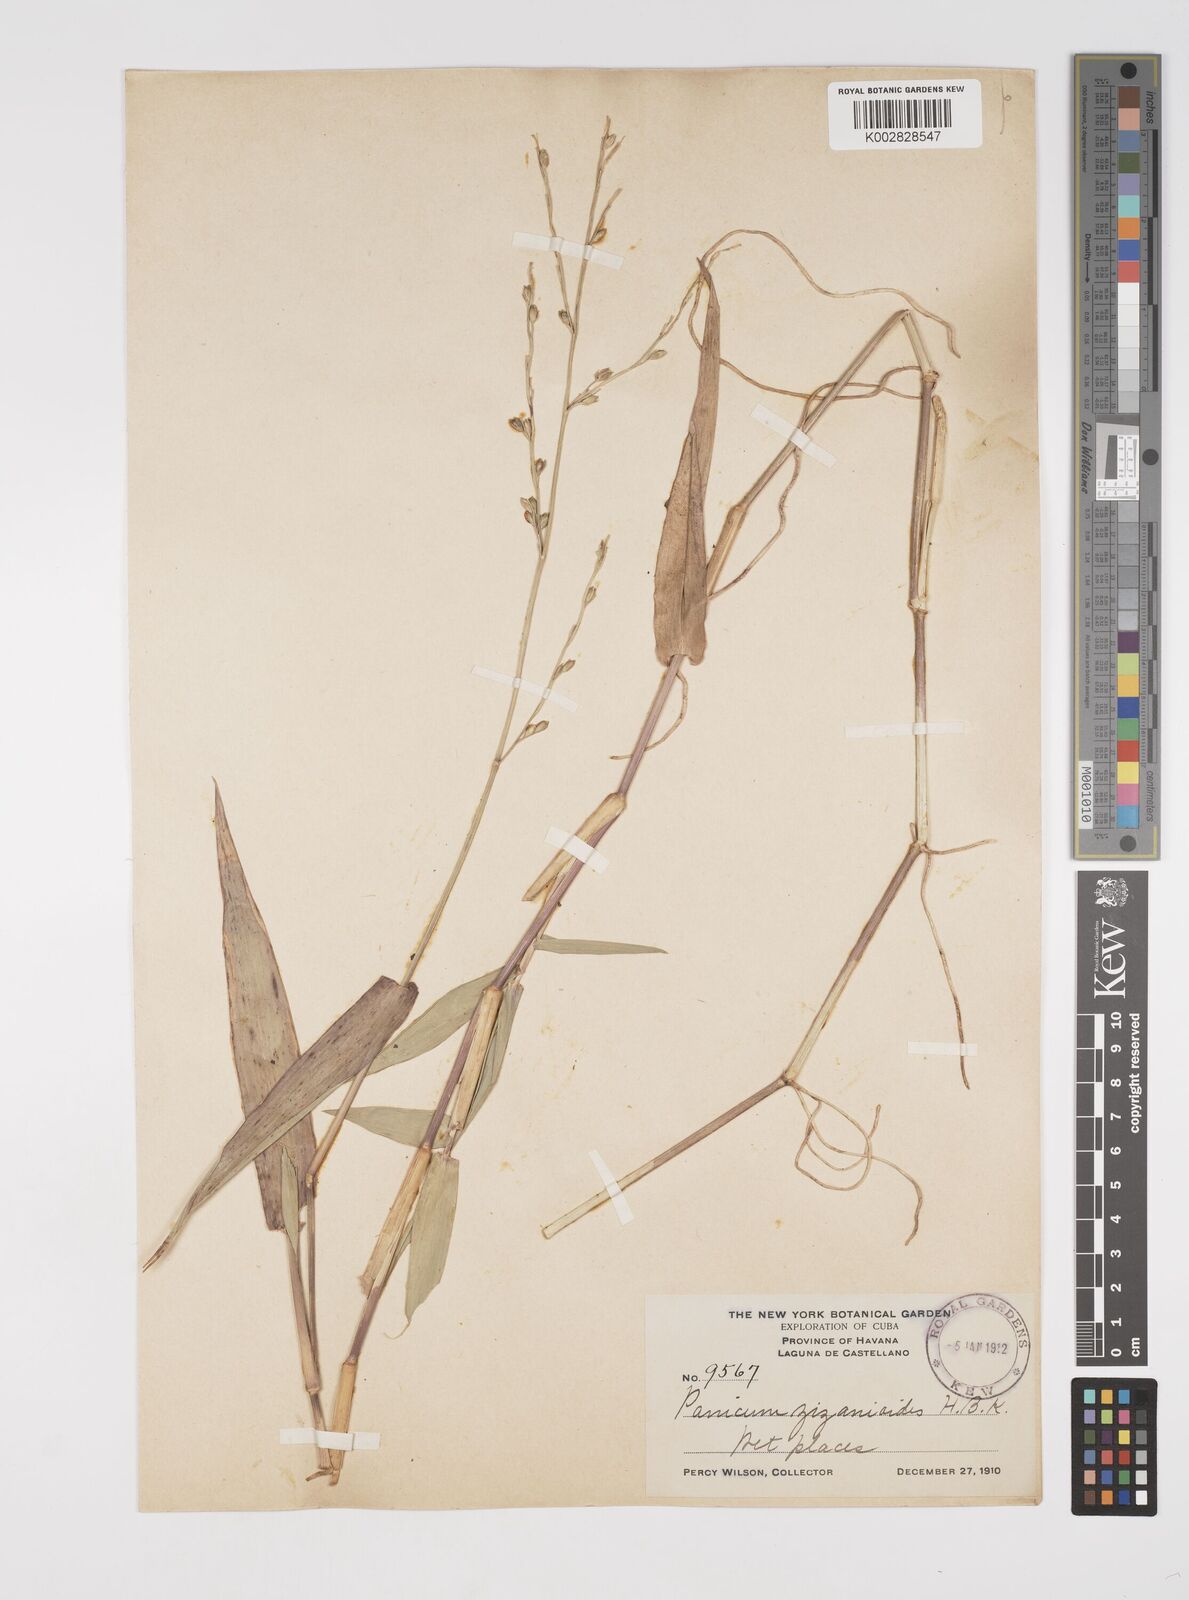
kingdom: Plantae
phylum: Tracheophyta
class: Liliopsida
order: Poales
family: Poaceae
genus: Acroceras
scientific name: Acroceras zizanioides
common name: Oat grass
